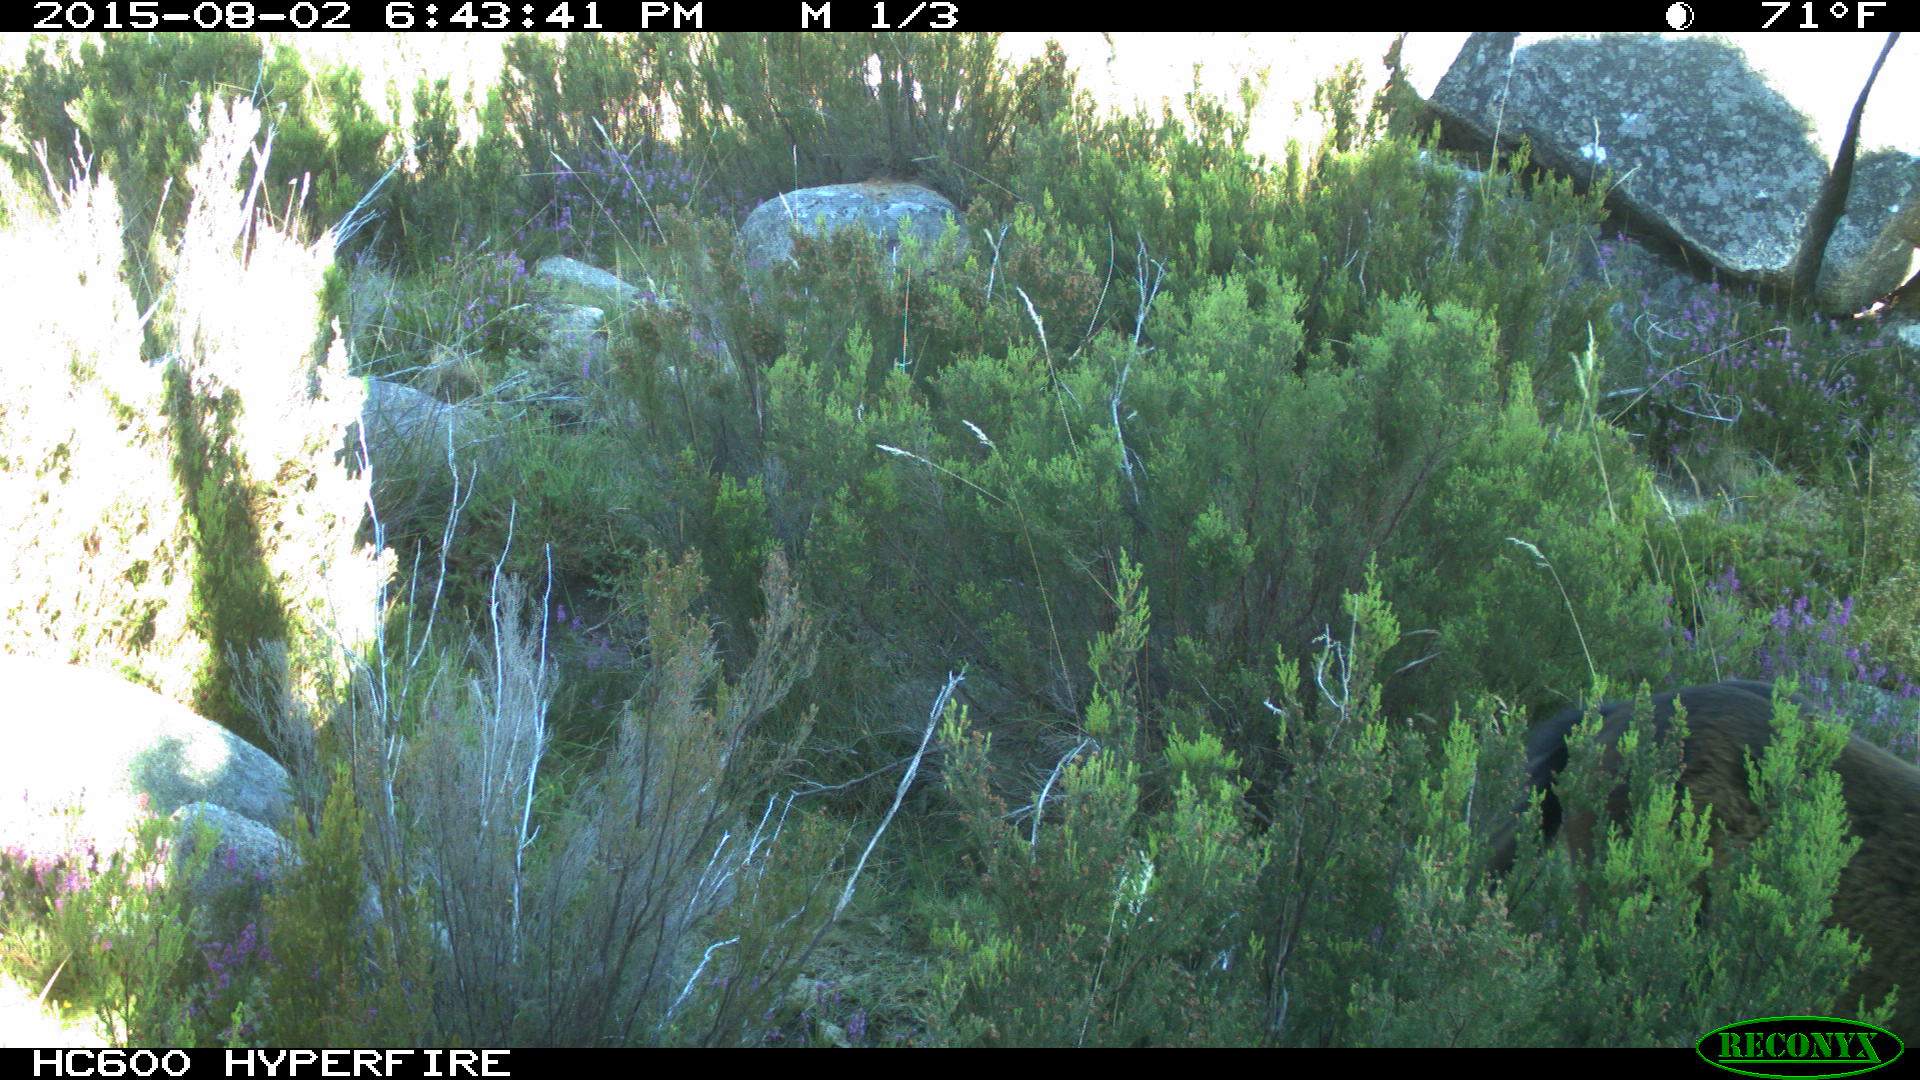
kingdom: Animalia
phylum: Chordata
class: Mammalia
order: Perissodactyla
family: Equidae
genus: Equus
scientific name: Equus caballus
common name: Horse
